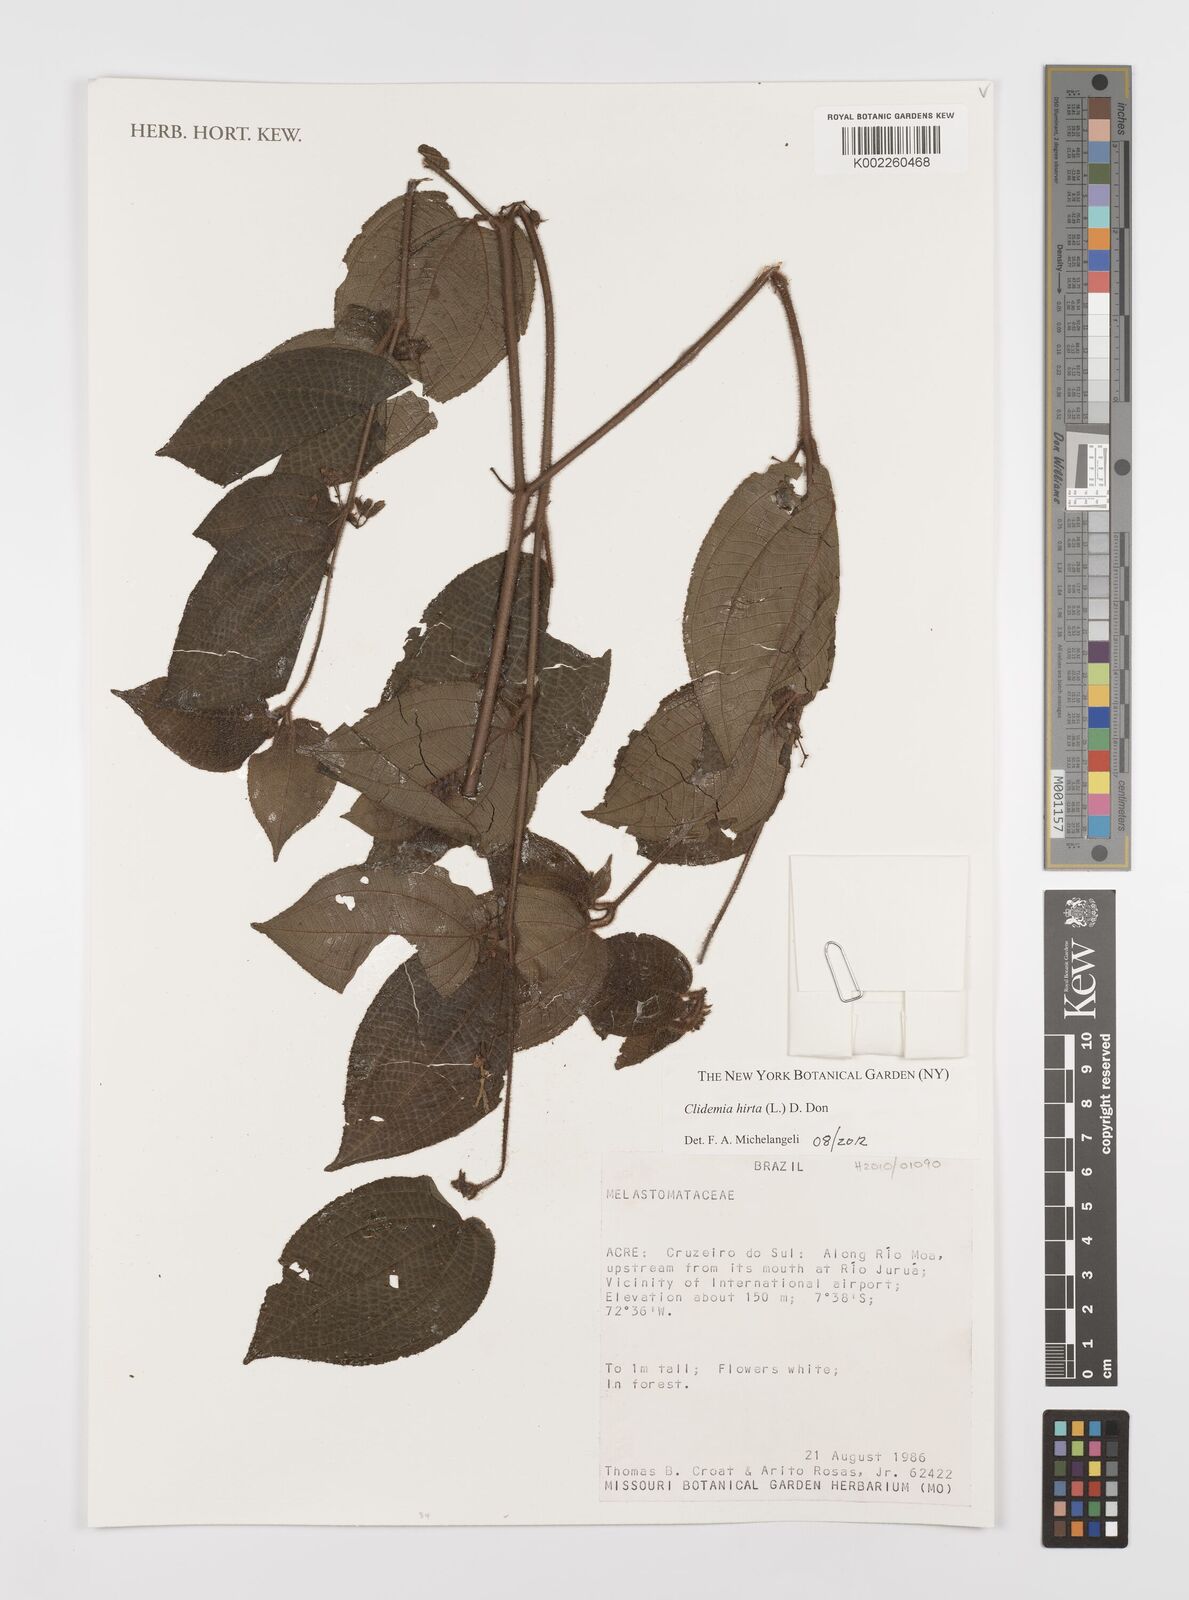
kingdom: Plantae
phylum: Tracheophyta
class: Magnoliopsida
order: Myrtales
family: Melastomataceae
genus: Miconia
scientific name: Miconia crenata
